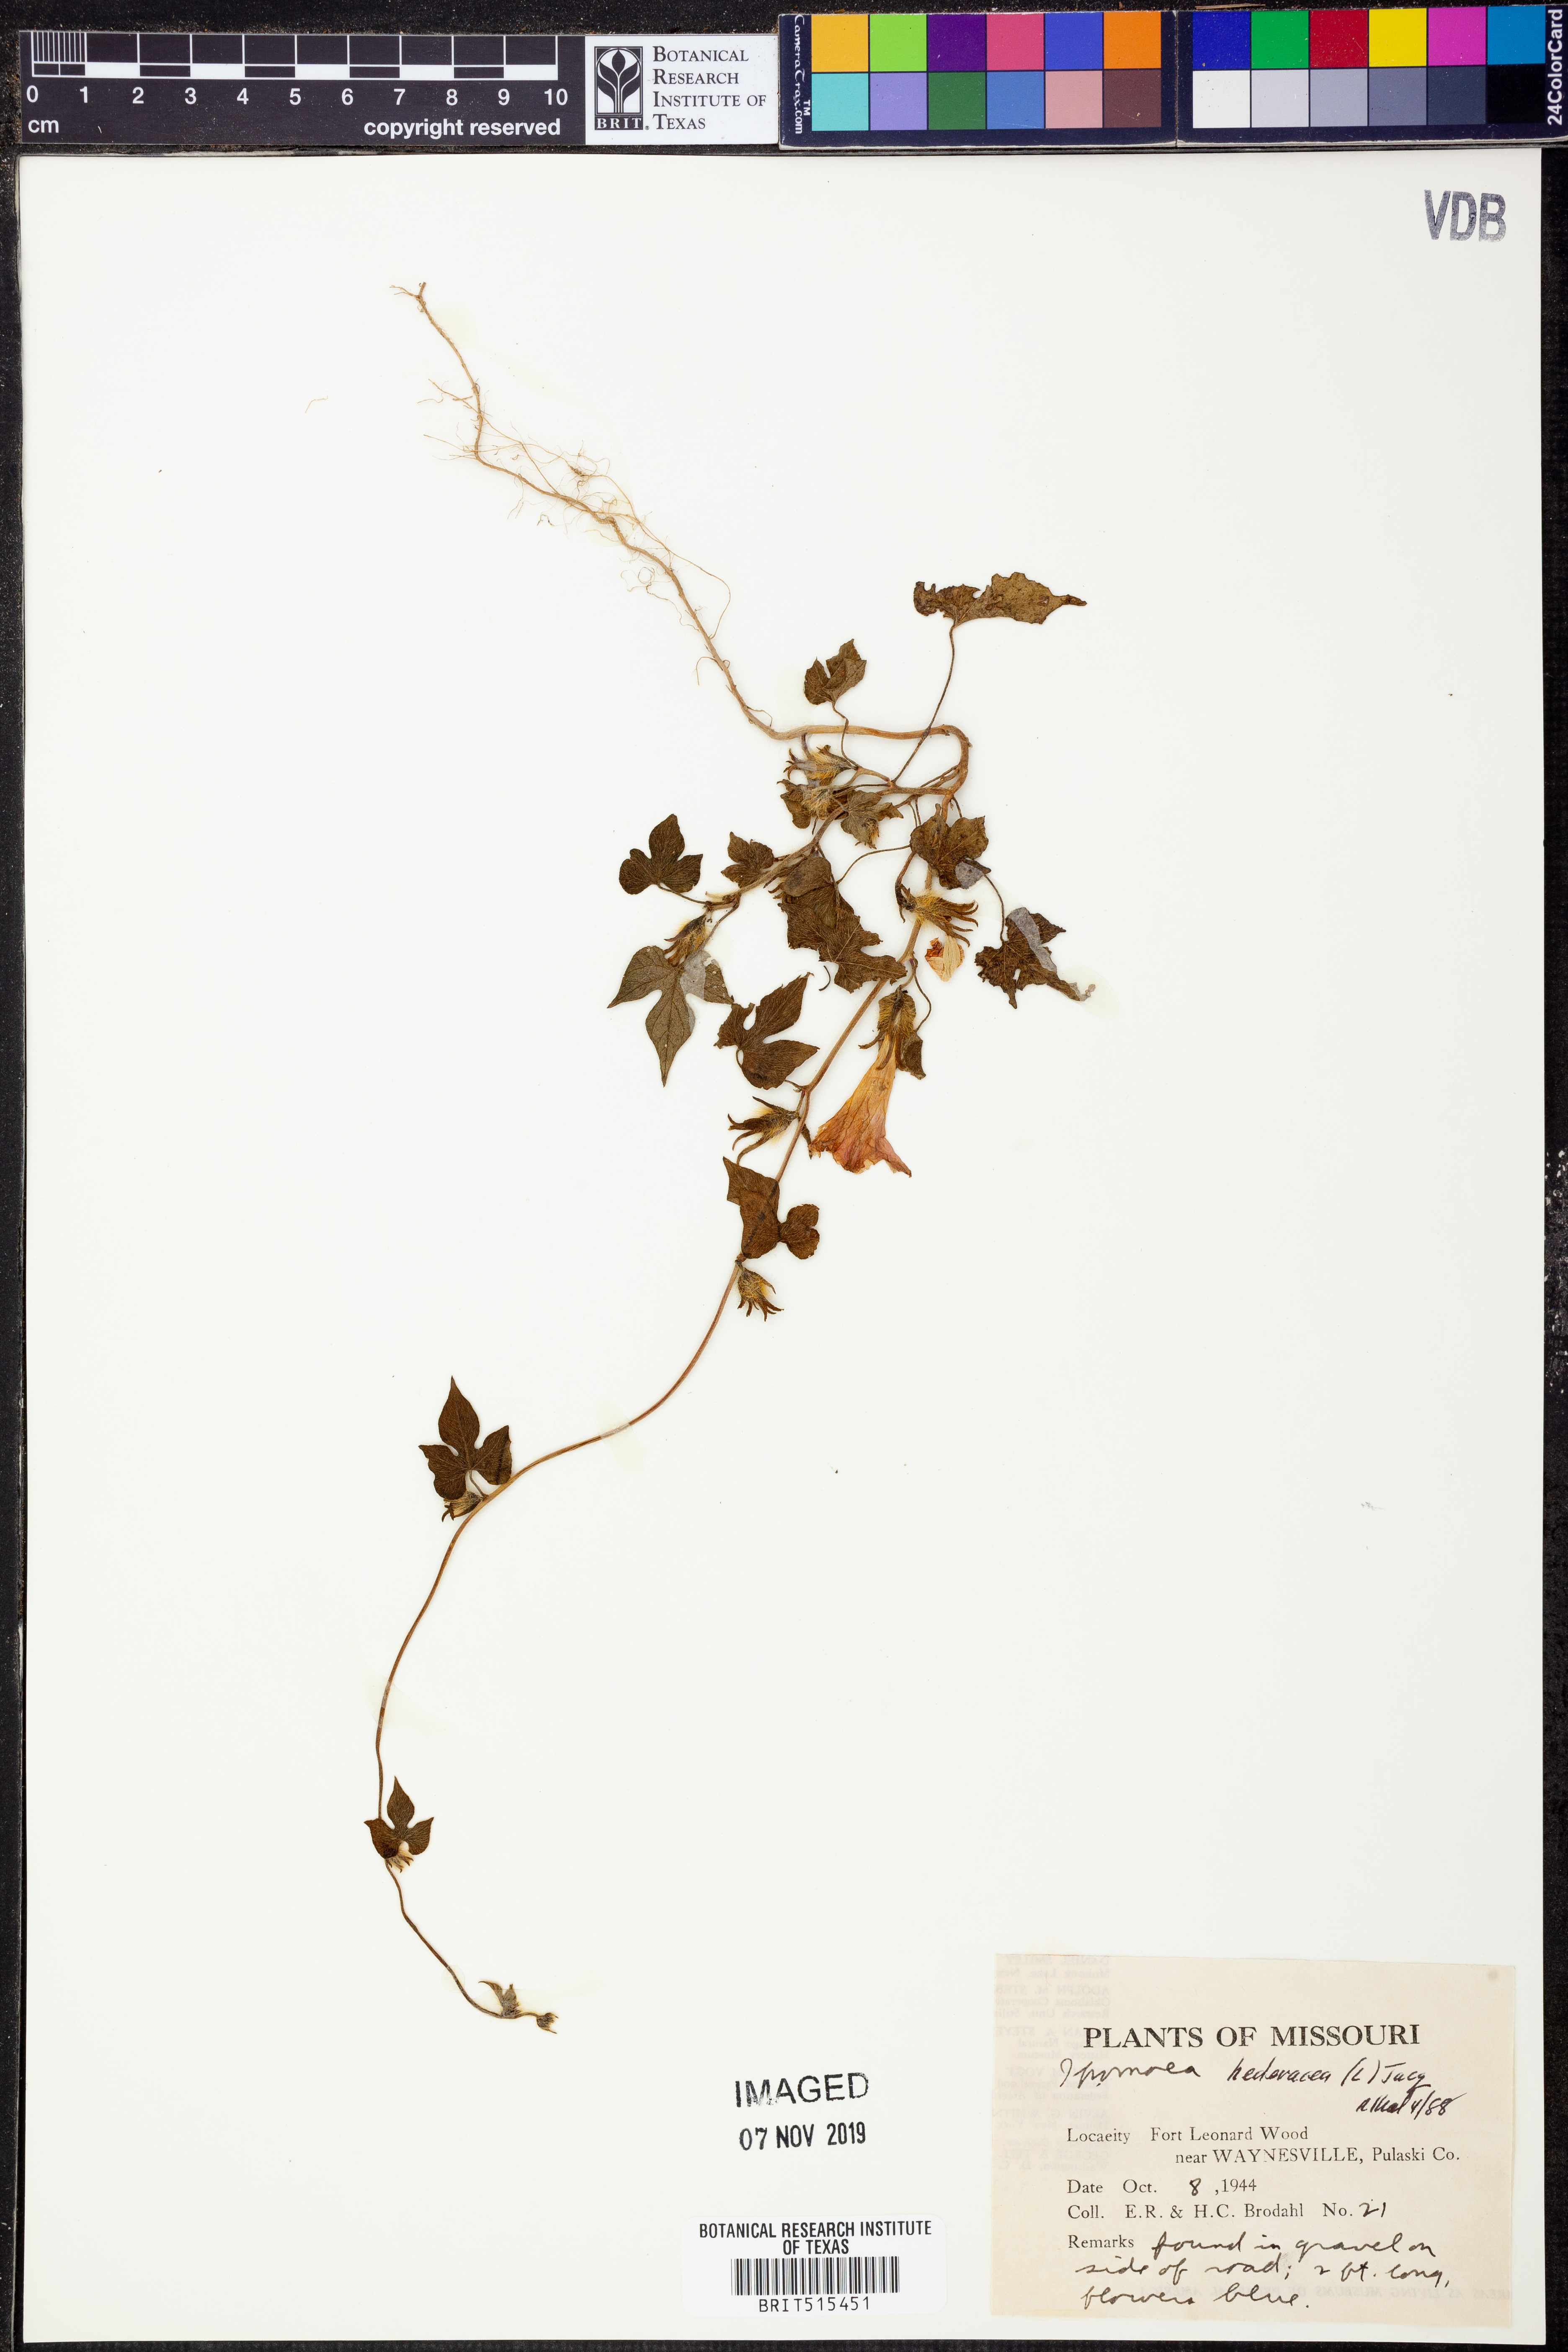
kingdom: Plantae
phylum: Tracheophyta
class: Magnoliopsida
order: Solanales
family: Convolvulaceae
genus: Ipomoea
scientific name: Ipomoea hederacea
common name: Ivy-leaved morning-glory
